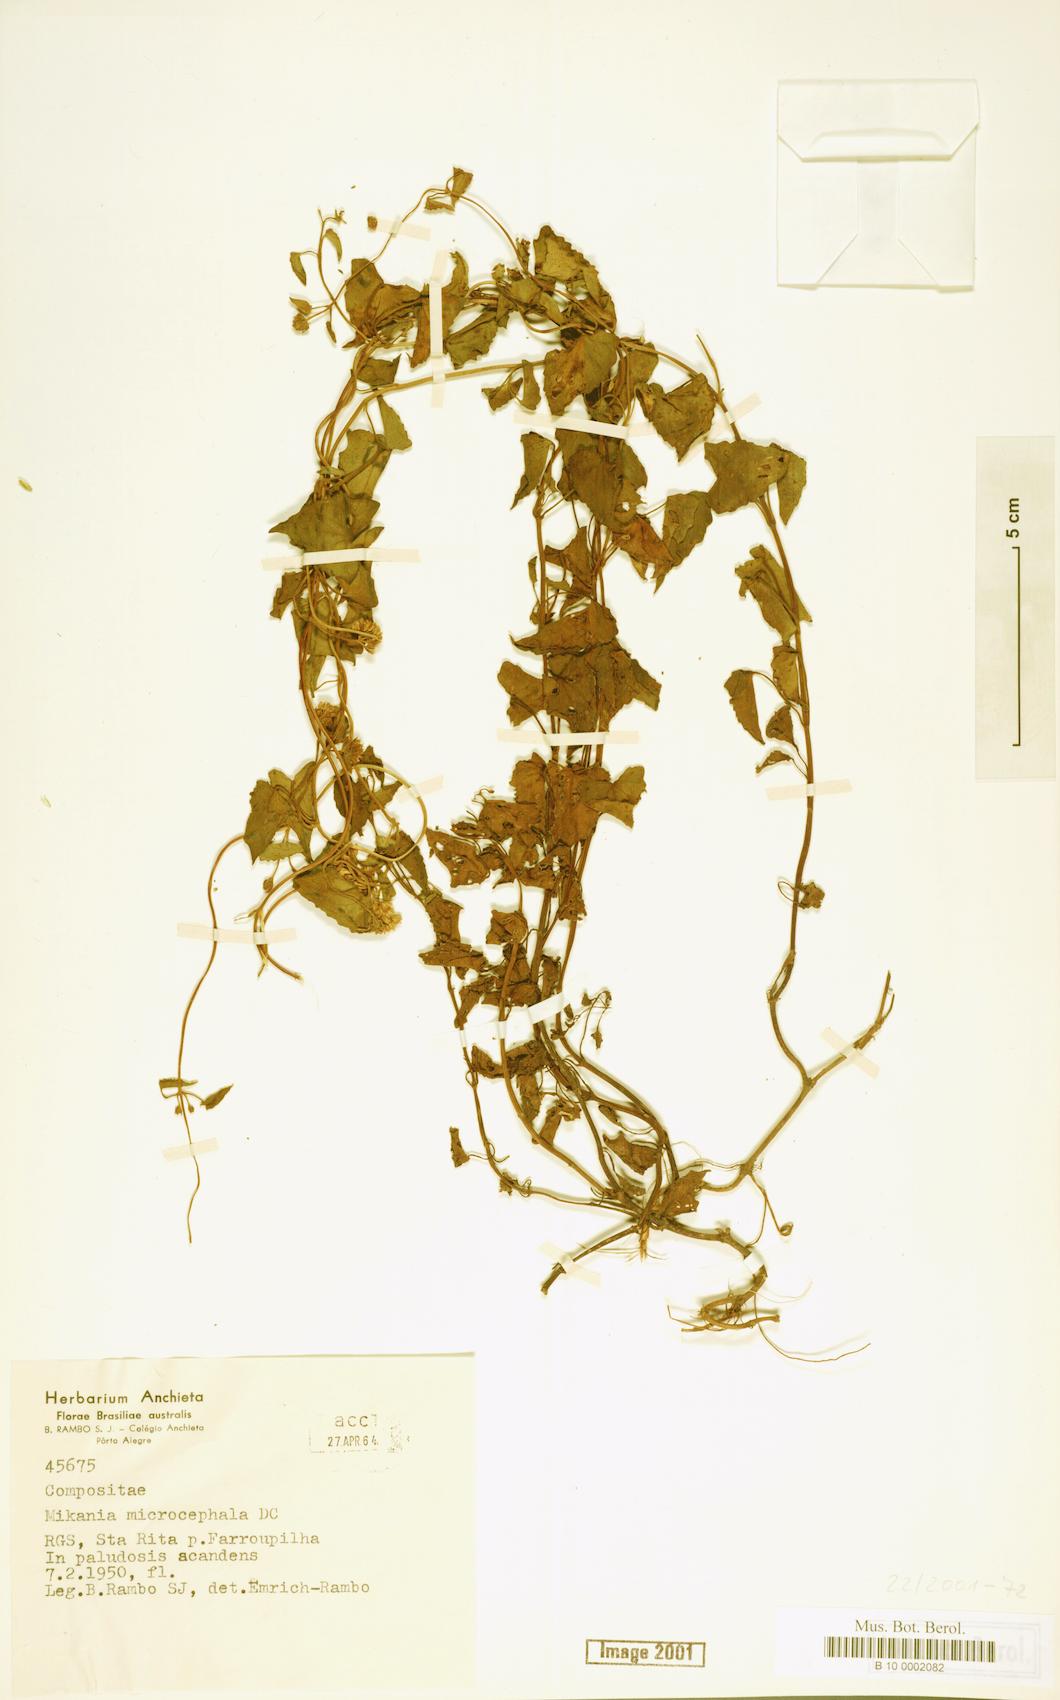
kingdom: Plantae
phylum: Tracheophyta
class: Magnoliopsida
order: Asterales
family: Asteraceae
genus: Mikania
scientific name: Mikania microcephala
